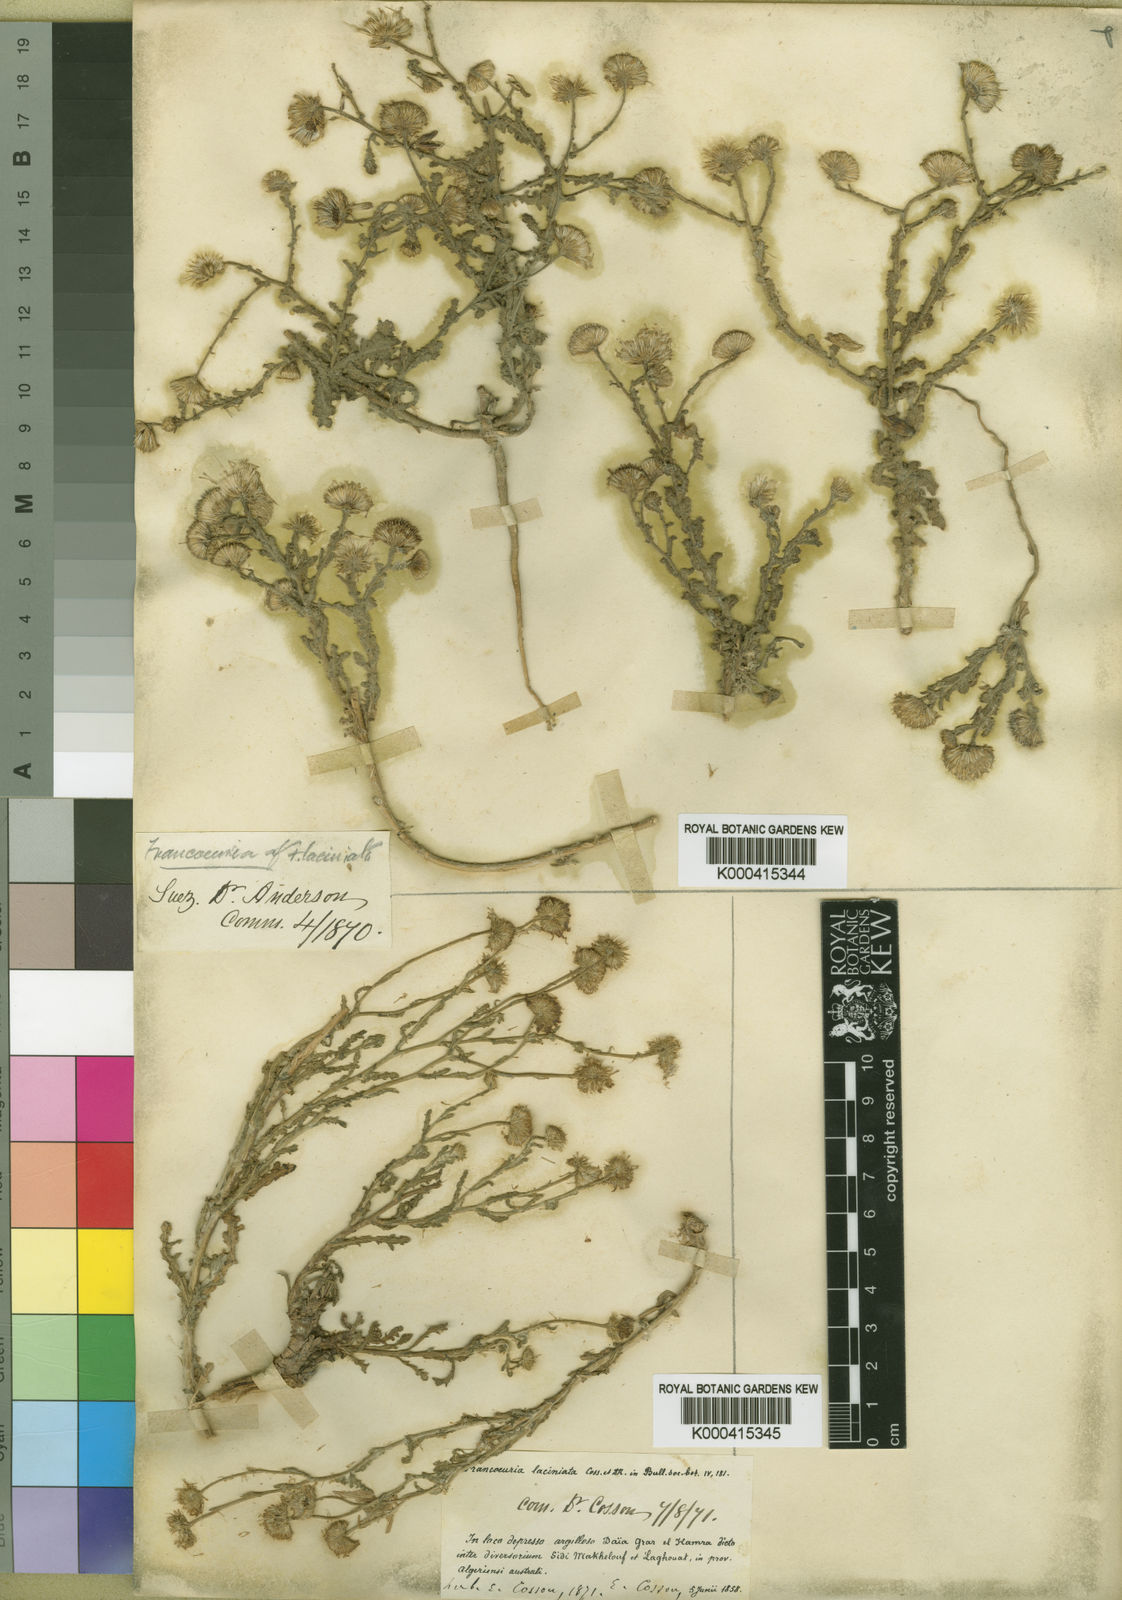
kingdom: Plantae
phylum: Tracheophyta
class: Magnoliopsida
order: Asterales
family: Asteraceae
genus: Pulicaria
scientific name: Pulicaria undulata
